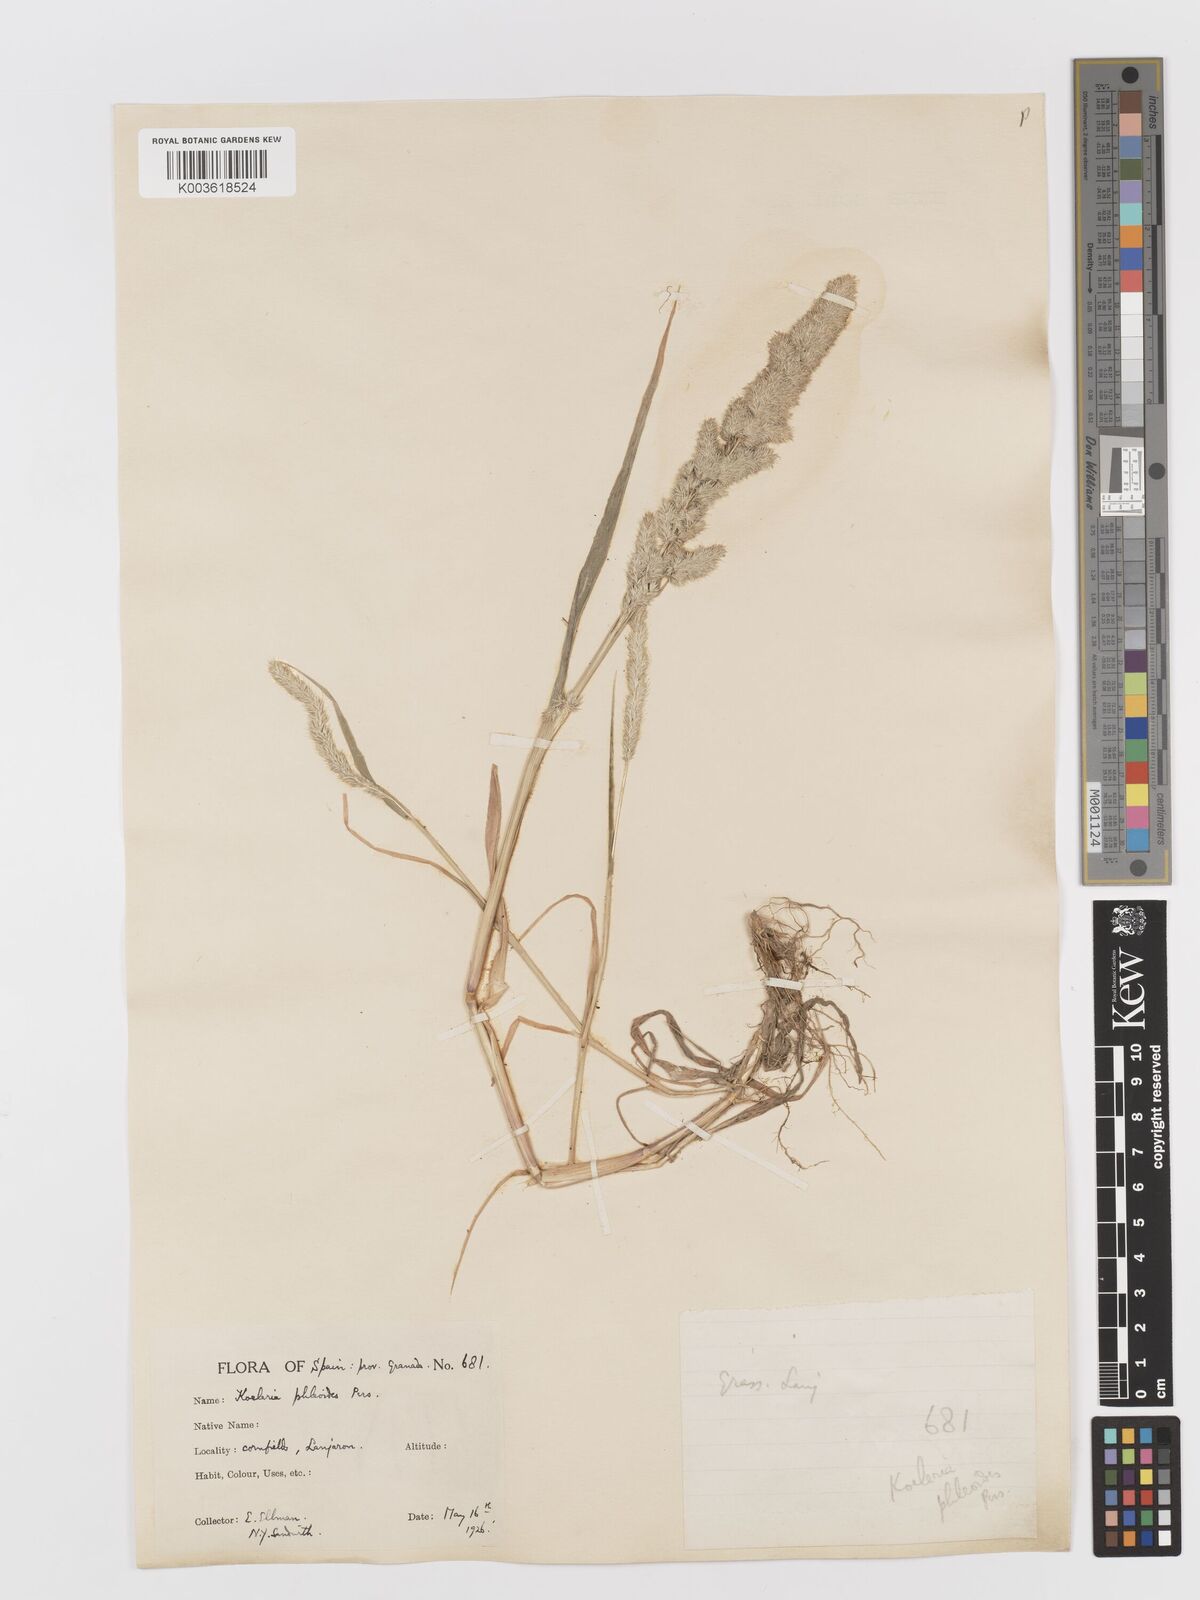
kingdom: Plantae
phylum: Tracheophyta
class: Liliopsida
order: Poales
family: Poaceae
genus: Rostraria
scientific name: Rostraria cristata
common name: Mediterranean hair-grass
